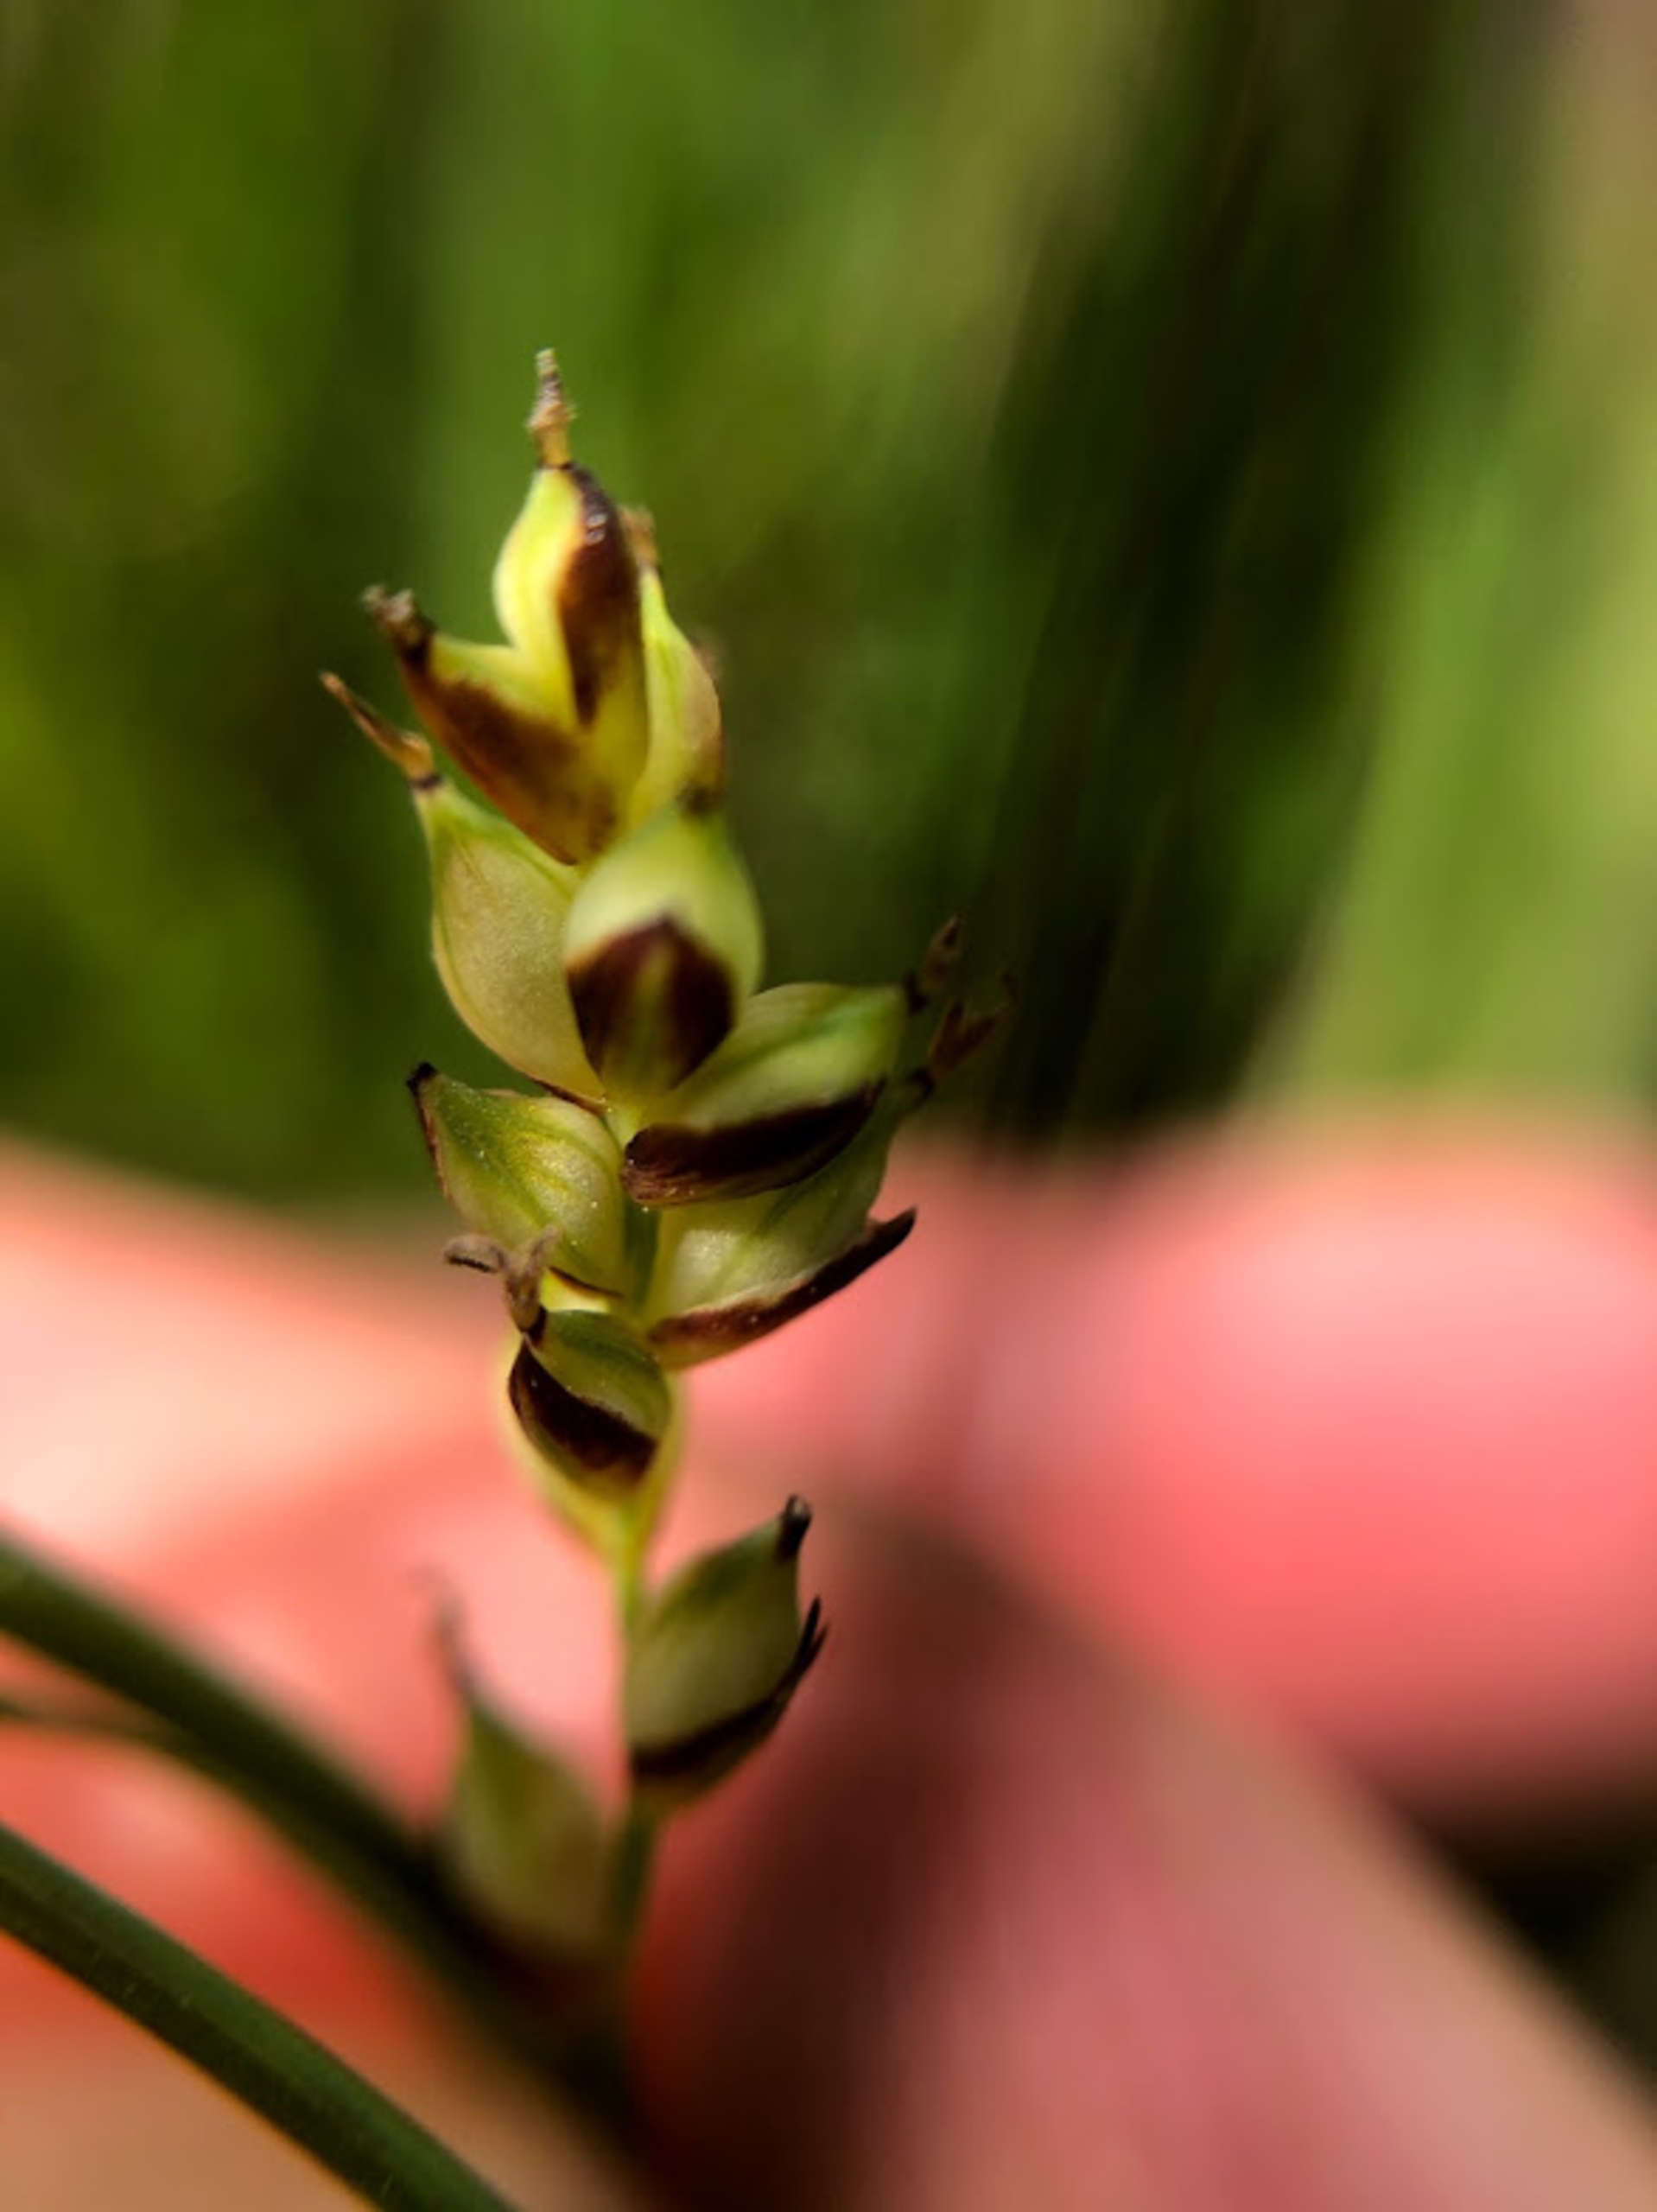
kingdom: Plantae
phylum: Tracheophyta
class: Liliopsida
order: Poales
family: Cyperaceae
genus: Carex
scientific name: Carex panicea
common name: Hirse-star
